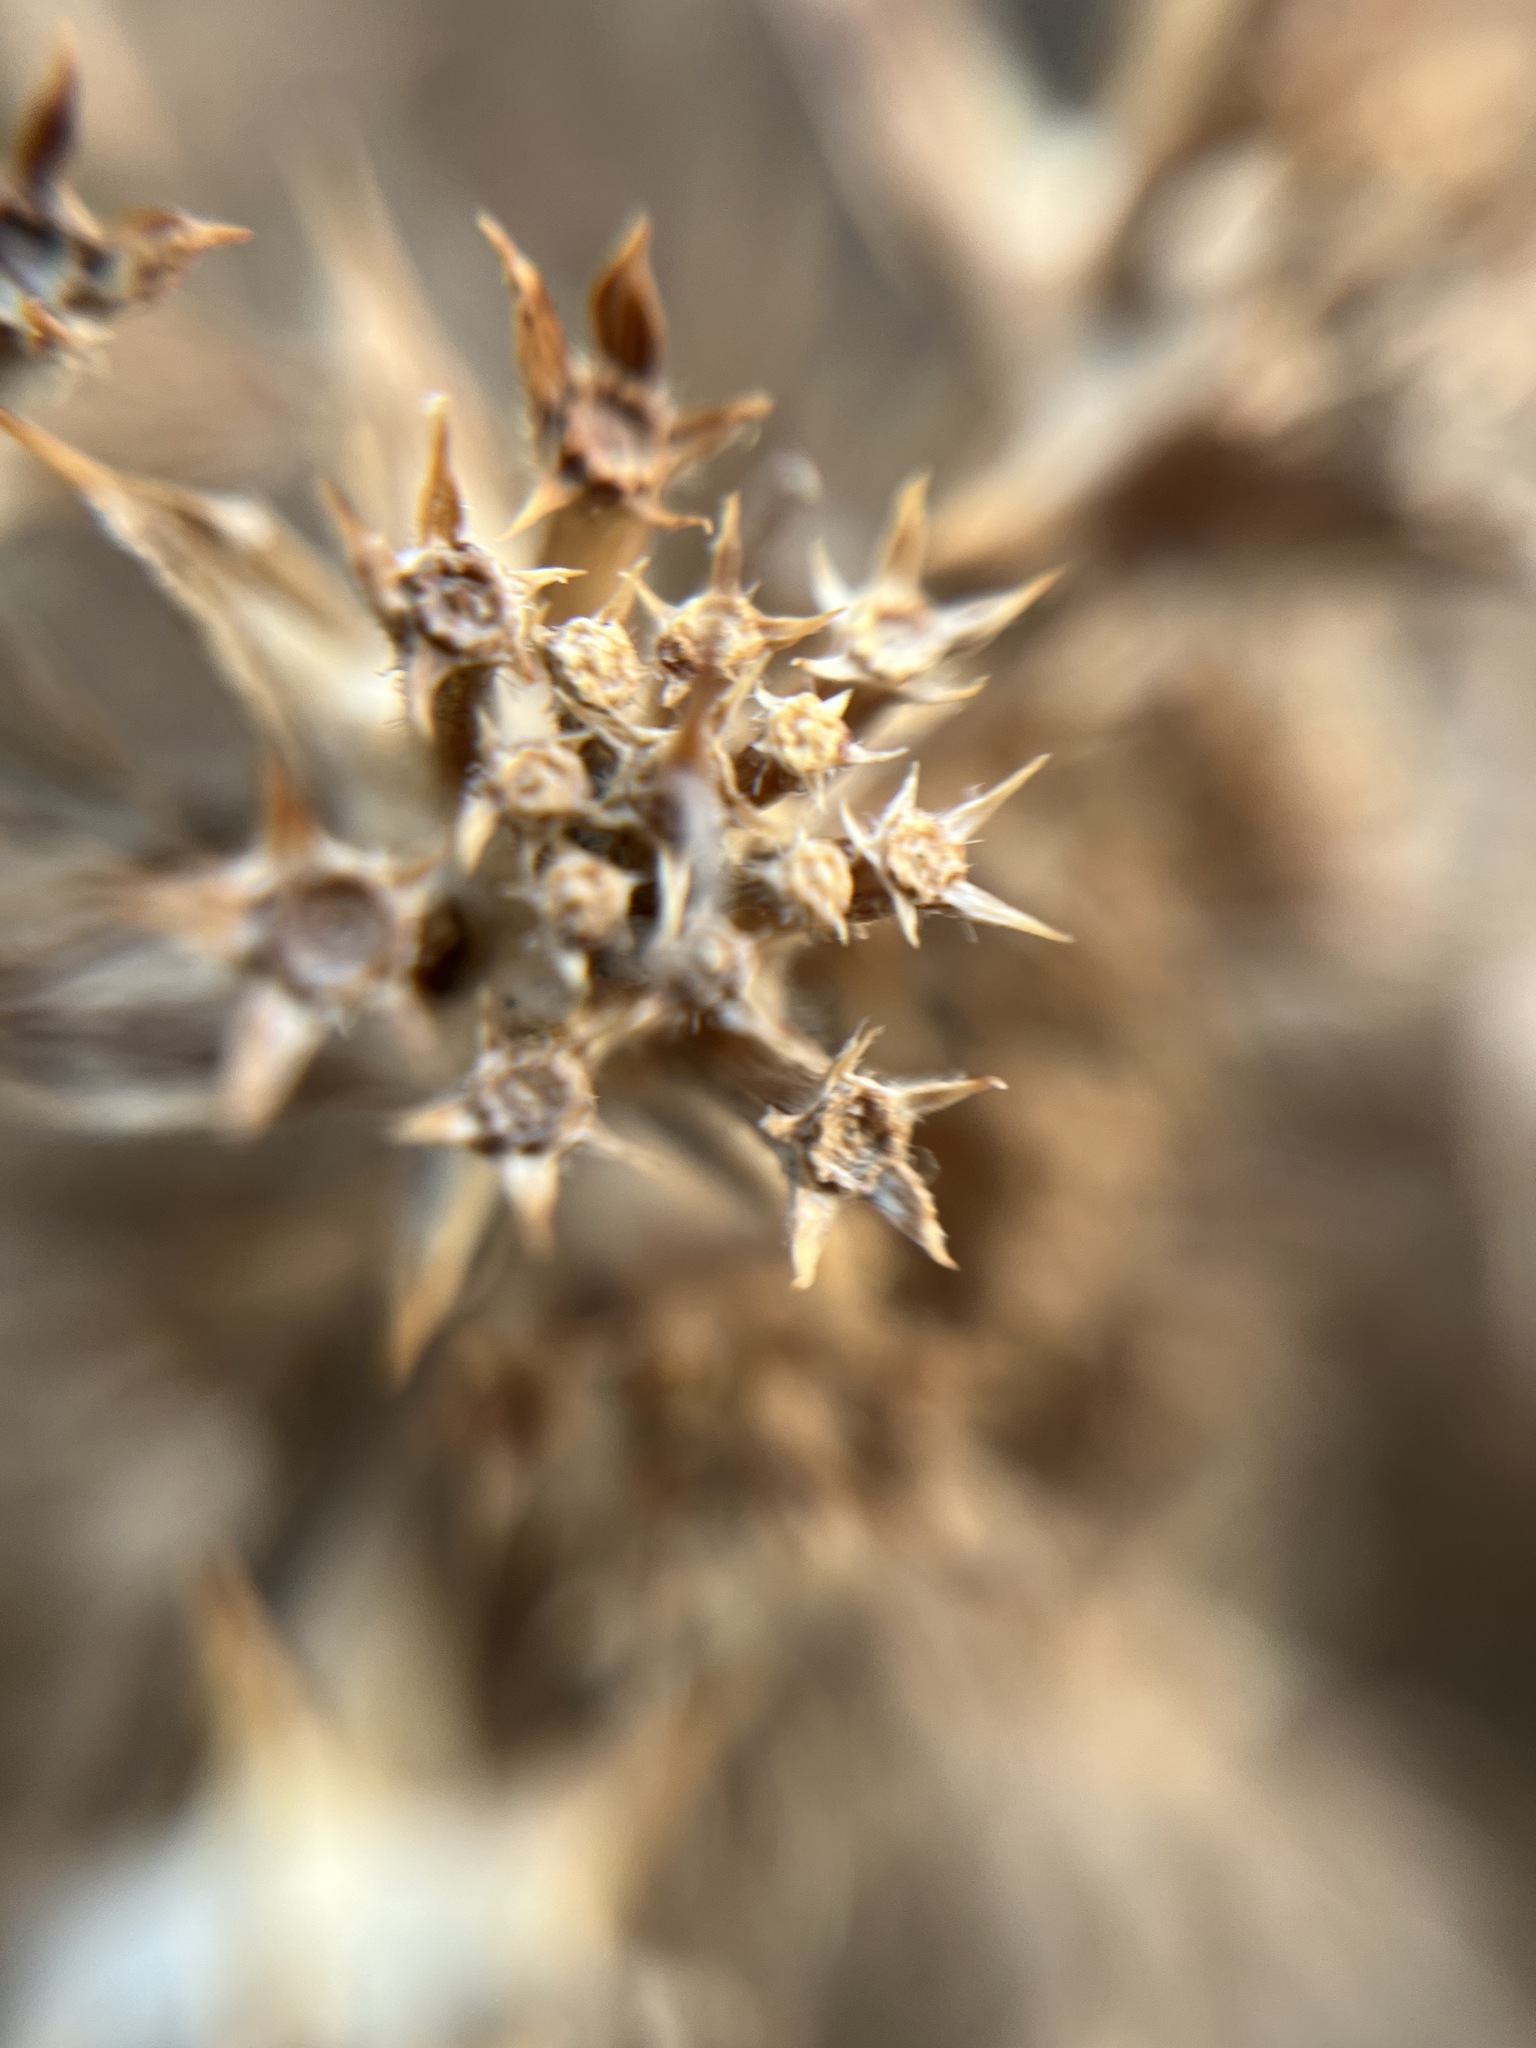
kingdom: Plantae
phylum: Tracheophyta
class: Magnoliopsida
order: Apiales
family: Apiaceae
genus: Echinophora
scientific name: Echinophora spinosa
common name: Prickly samphire
